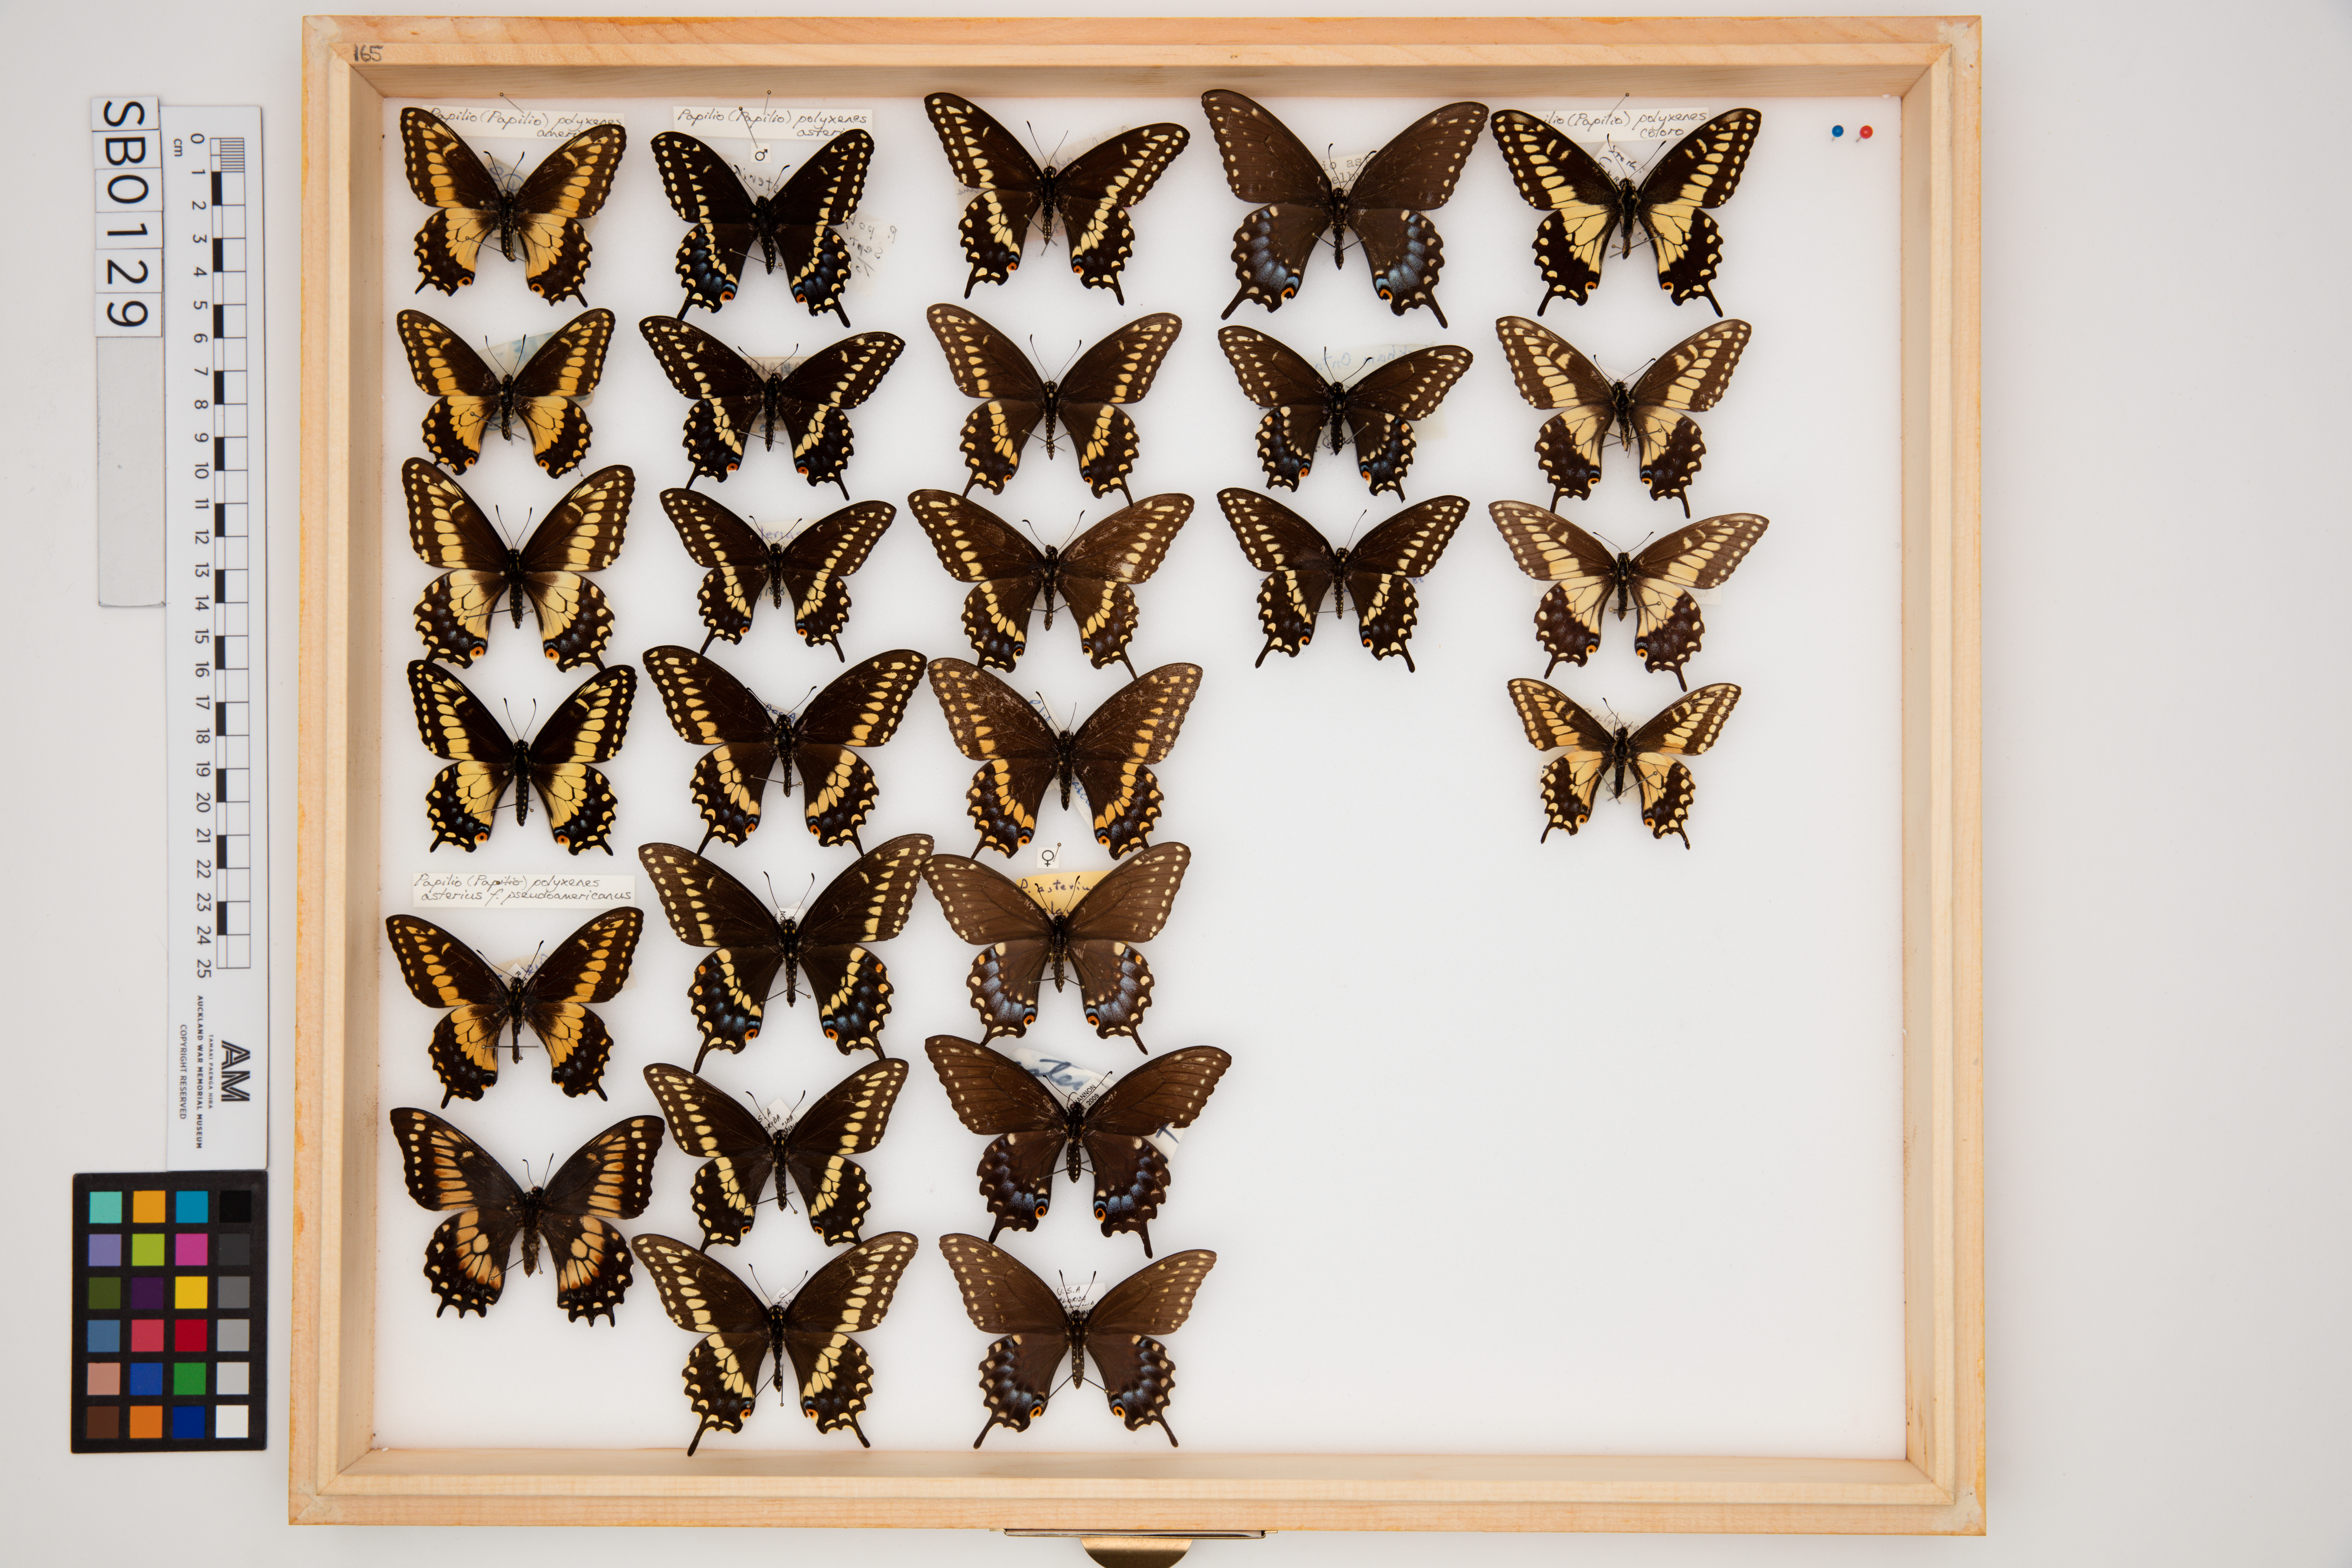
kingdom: Animalia
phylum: Arthropoda
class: Insecta
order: Lepidoptera
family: Papilionidae
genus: Papilio
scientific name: Papilio polyxenes
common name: Black swallowtail
